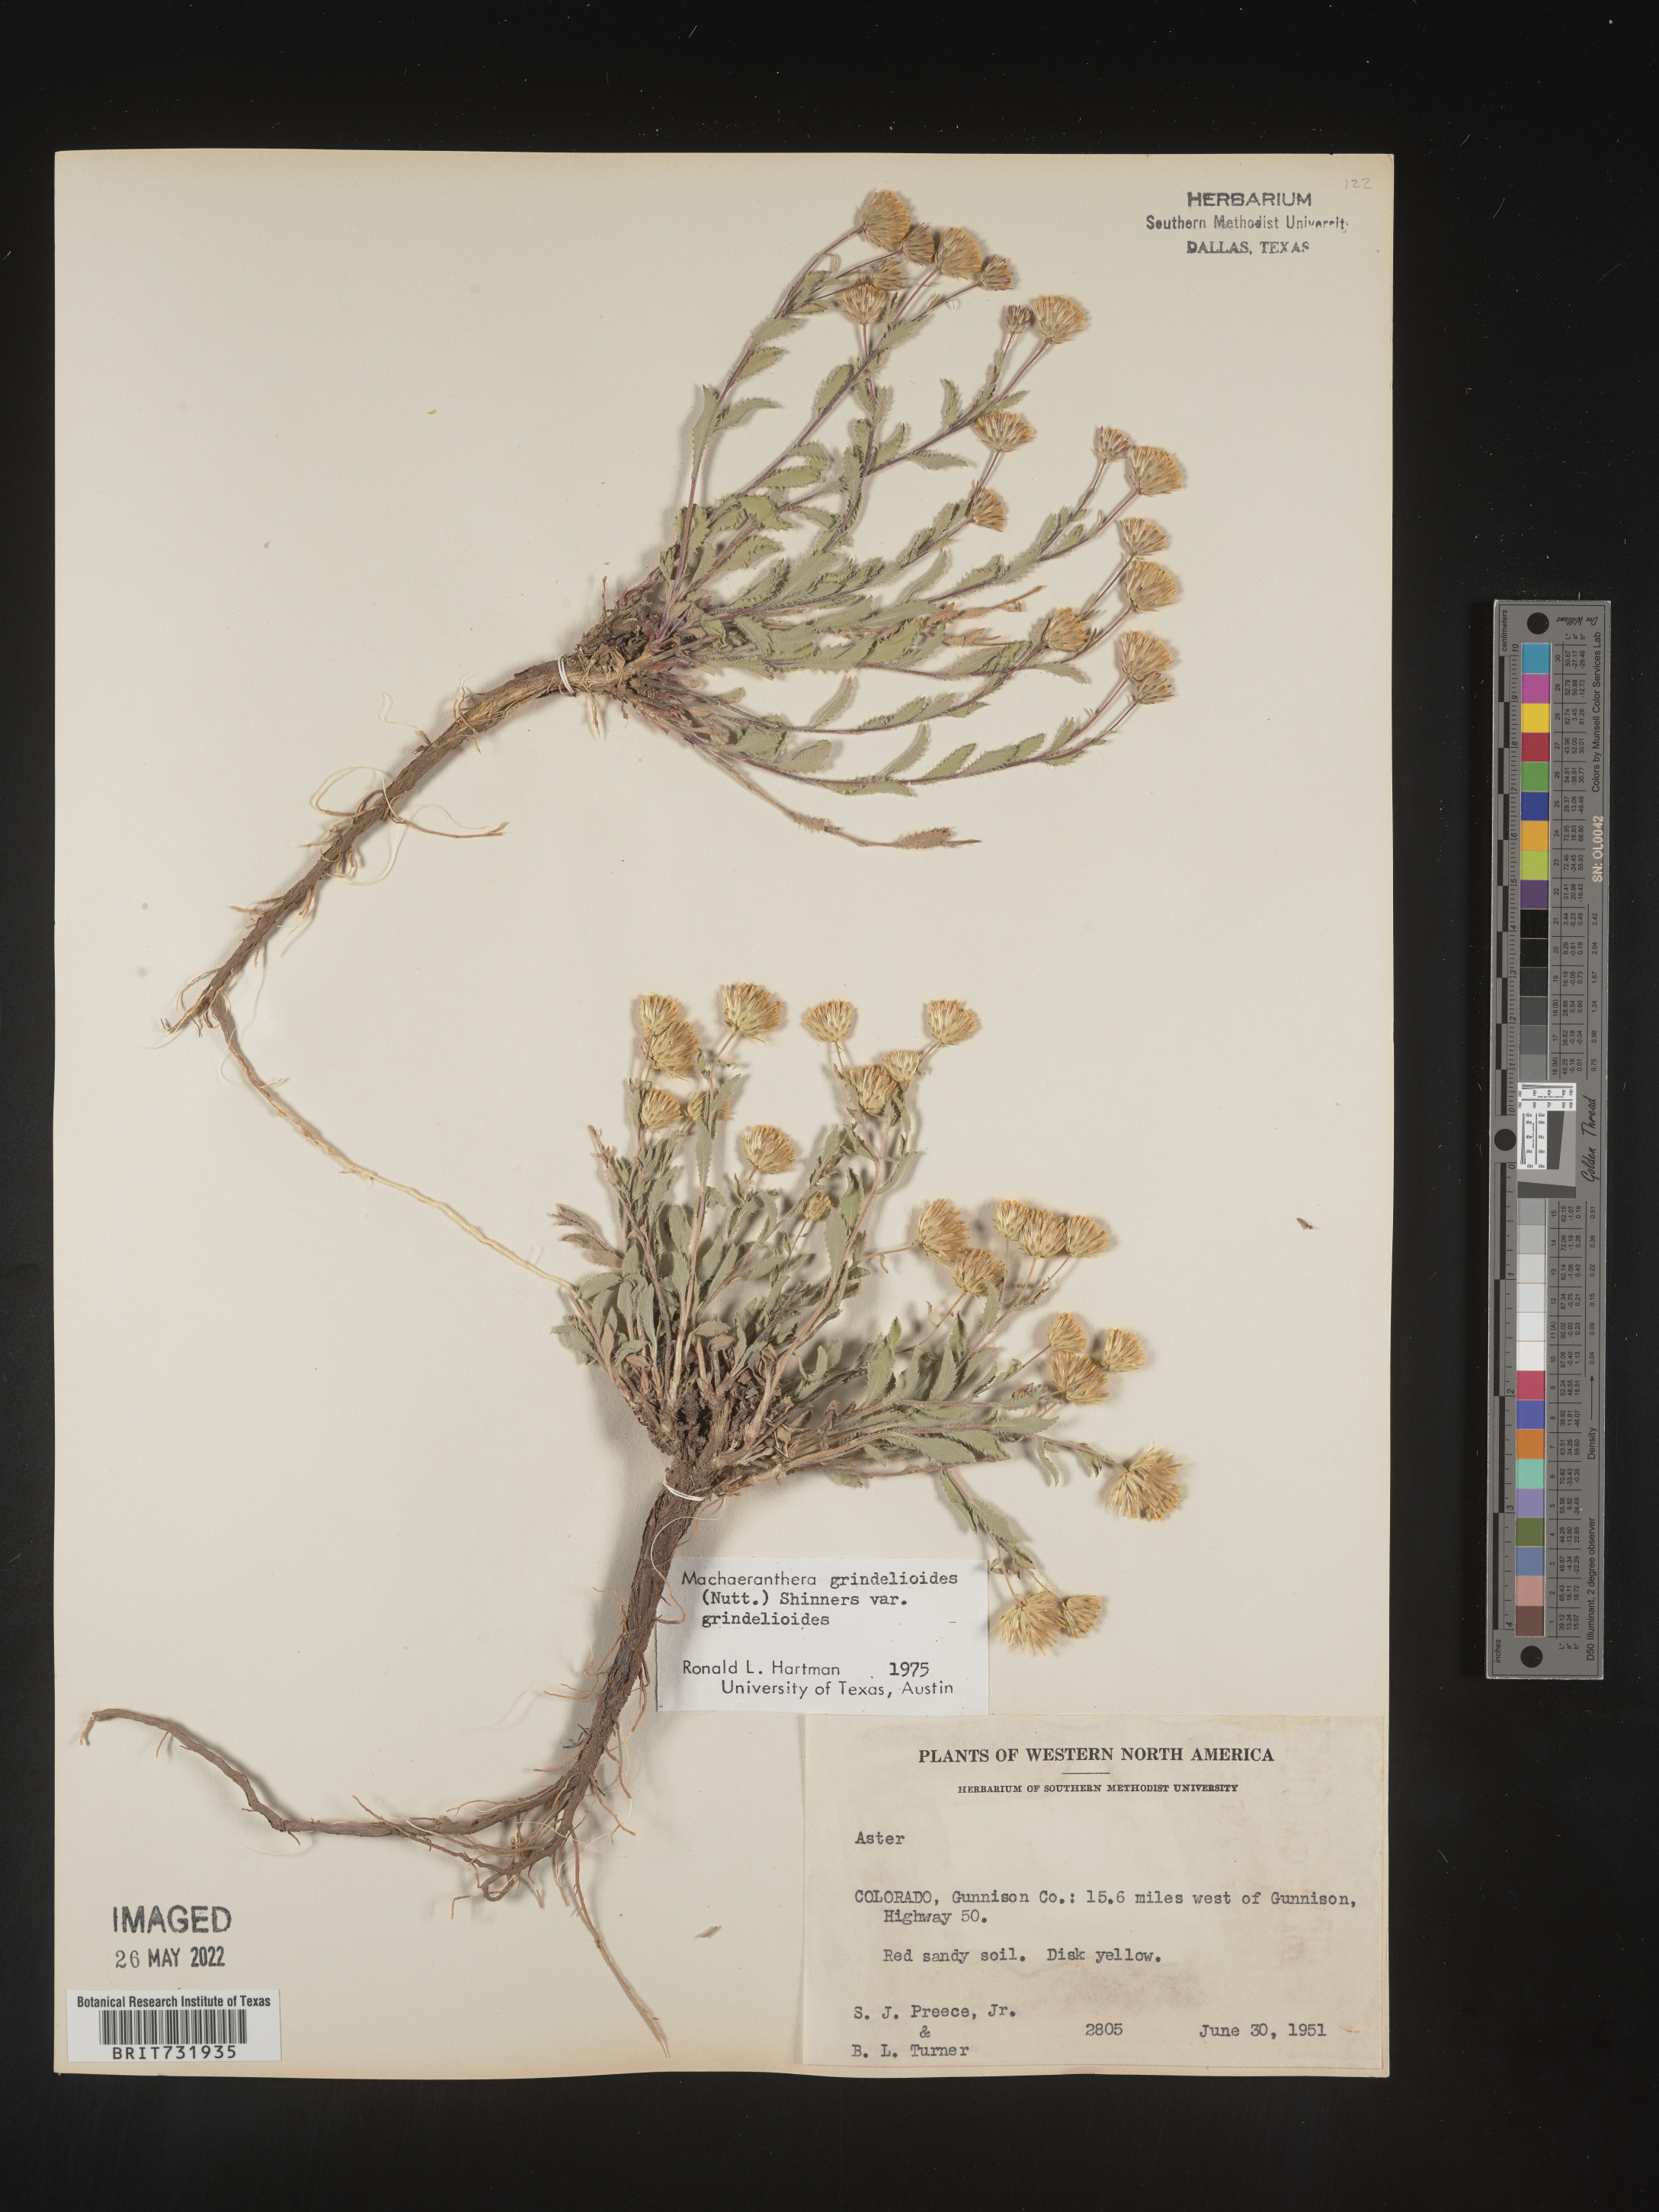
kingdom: Plantae
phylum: Tracheophyta
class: Magnoliopsida
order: Asterales
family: Asteraceae
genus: Xanthisma
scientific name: Xanthisma grindelioides
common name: Goldenweed
